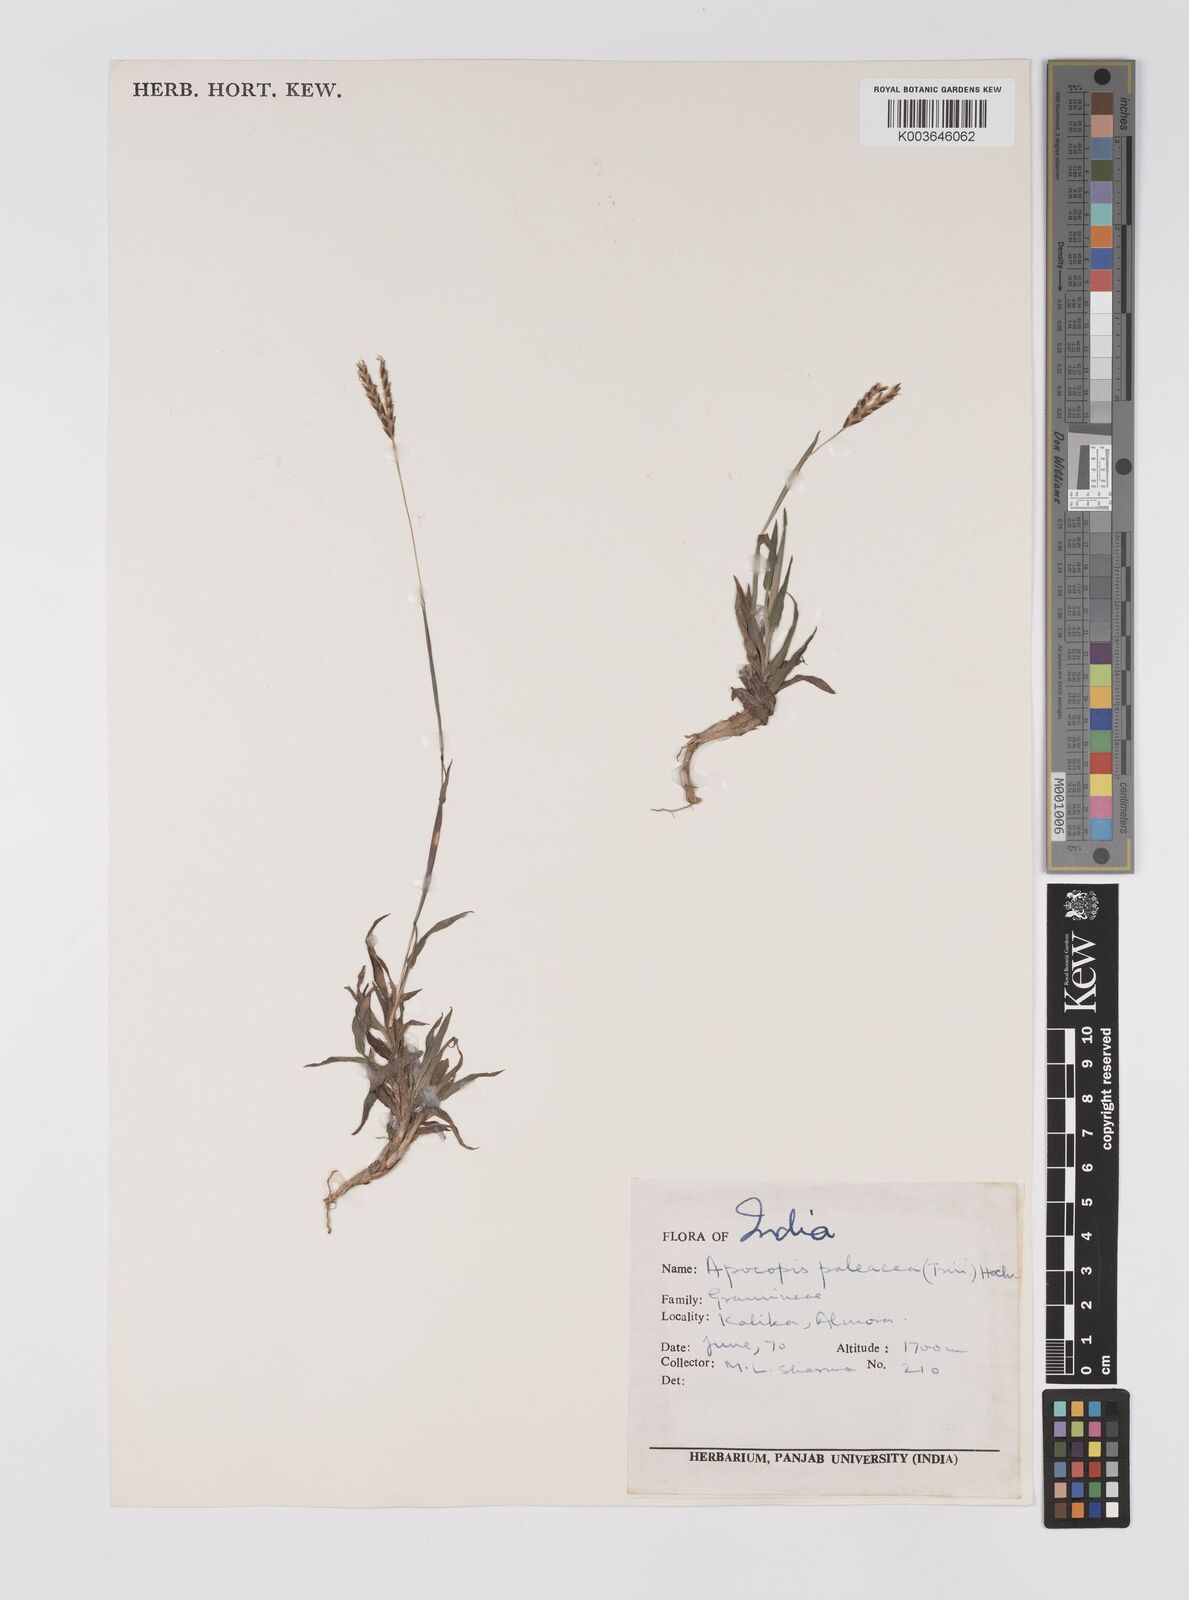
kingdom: Plantae
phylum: Tracheophyta
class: Liliopsida
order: Poales
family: Poaceae
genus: Apocopis
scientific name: Apocopis paleaceus
